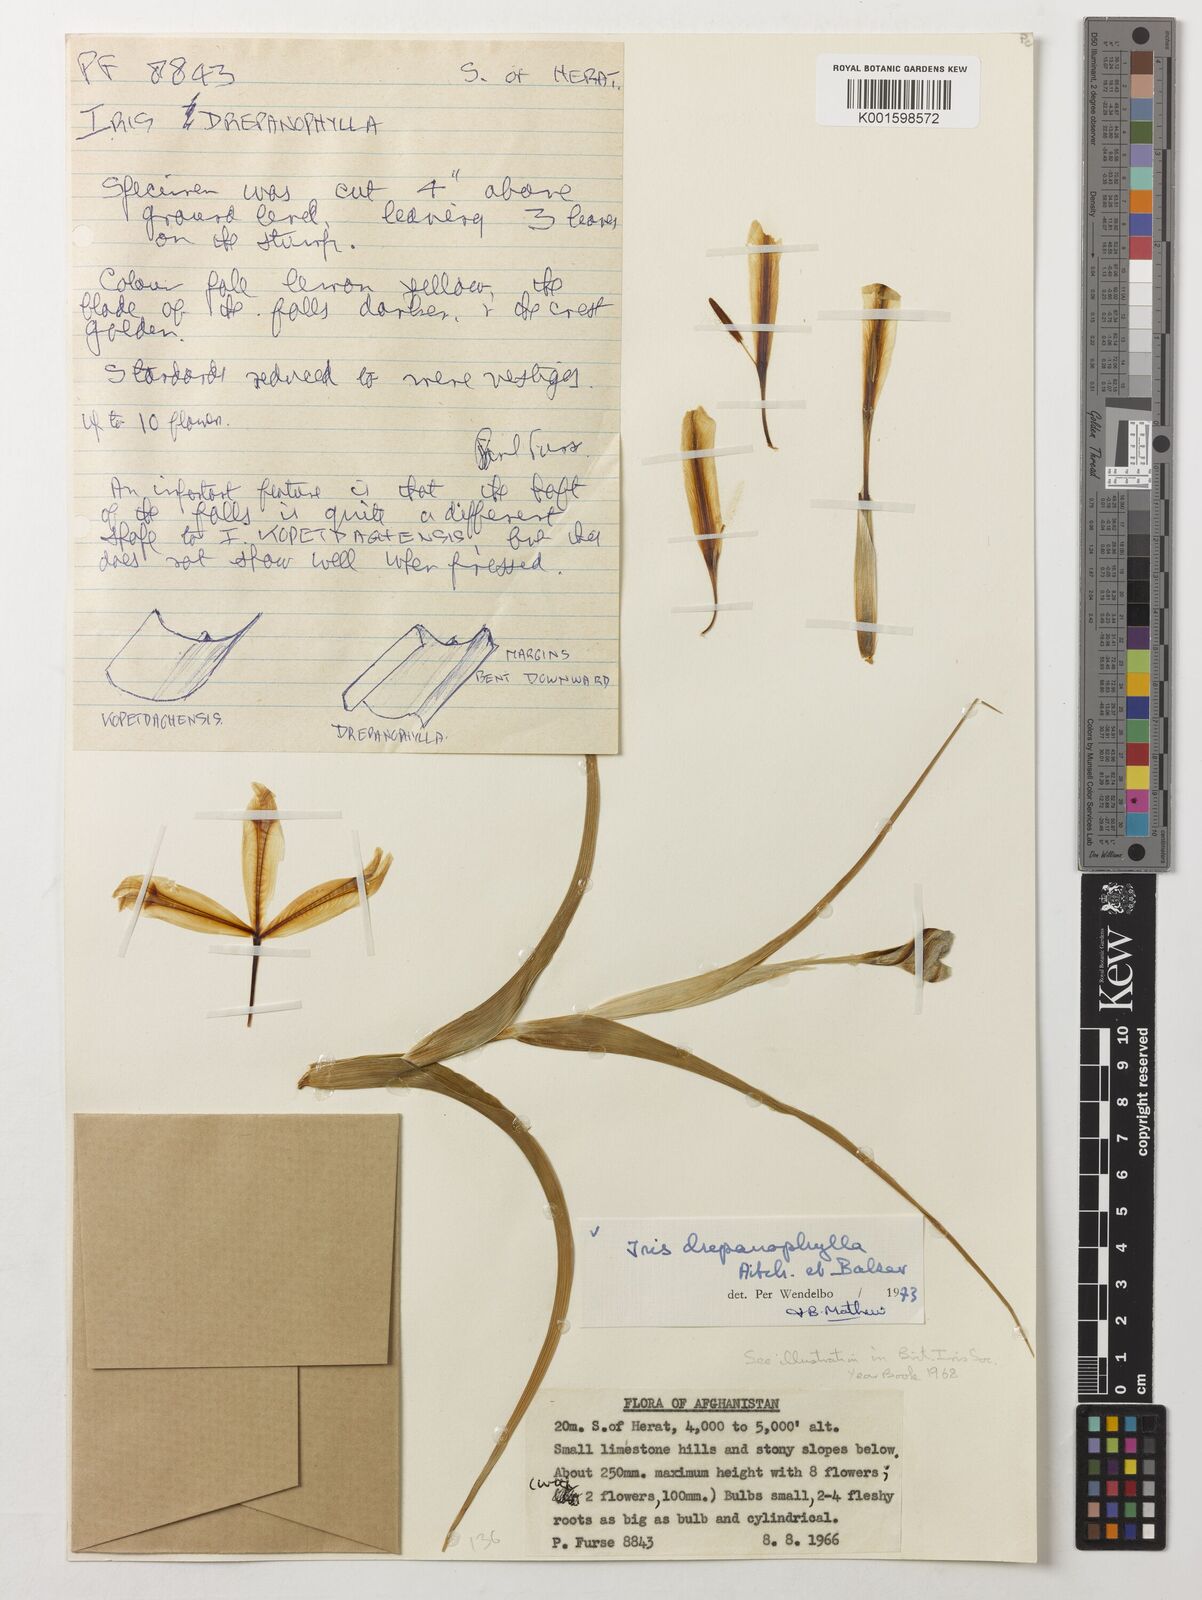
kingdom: Plantae
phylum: Tracheophyta
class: Liliopsida
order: Asparagales
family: Iridaceae
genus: Iris
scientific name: Iris drepanophylla
